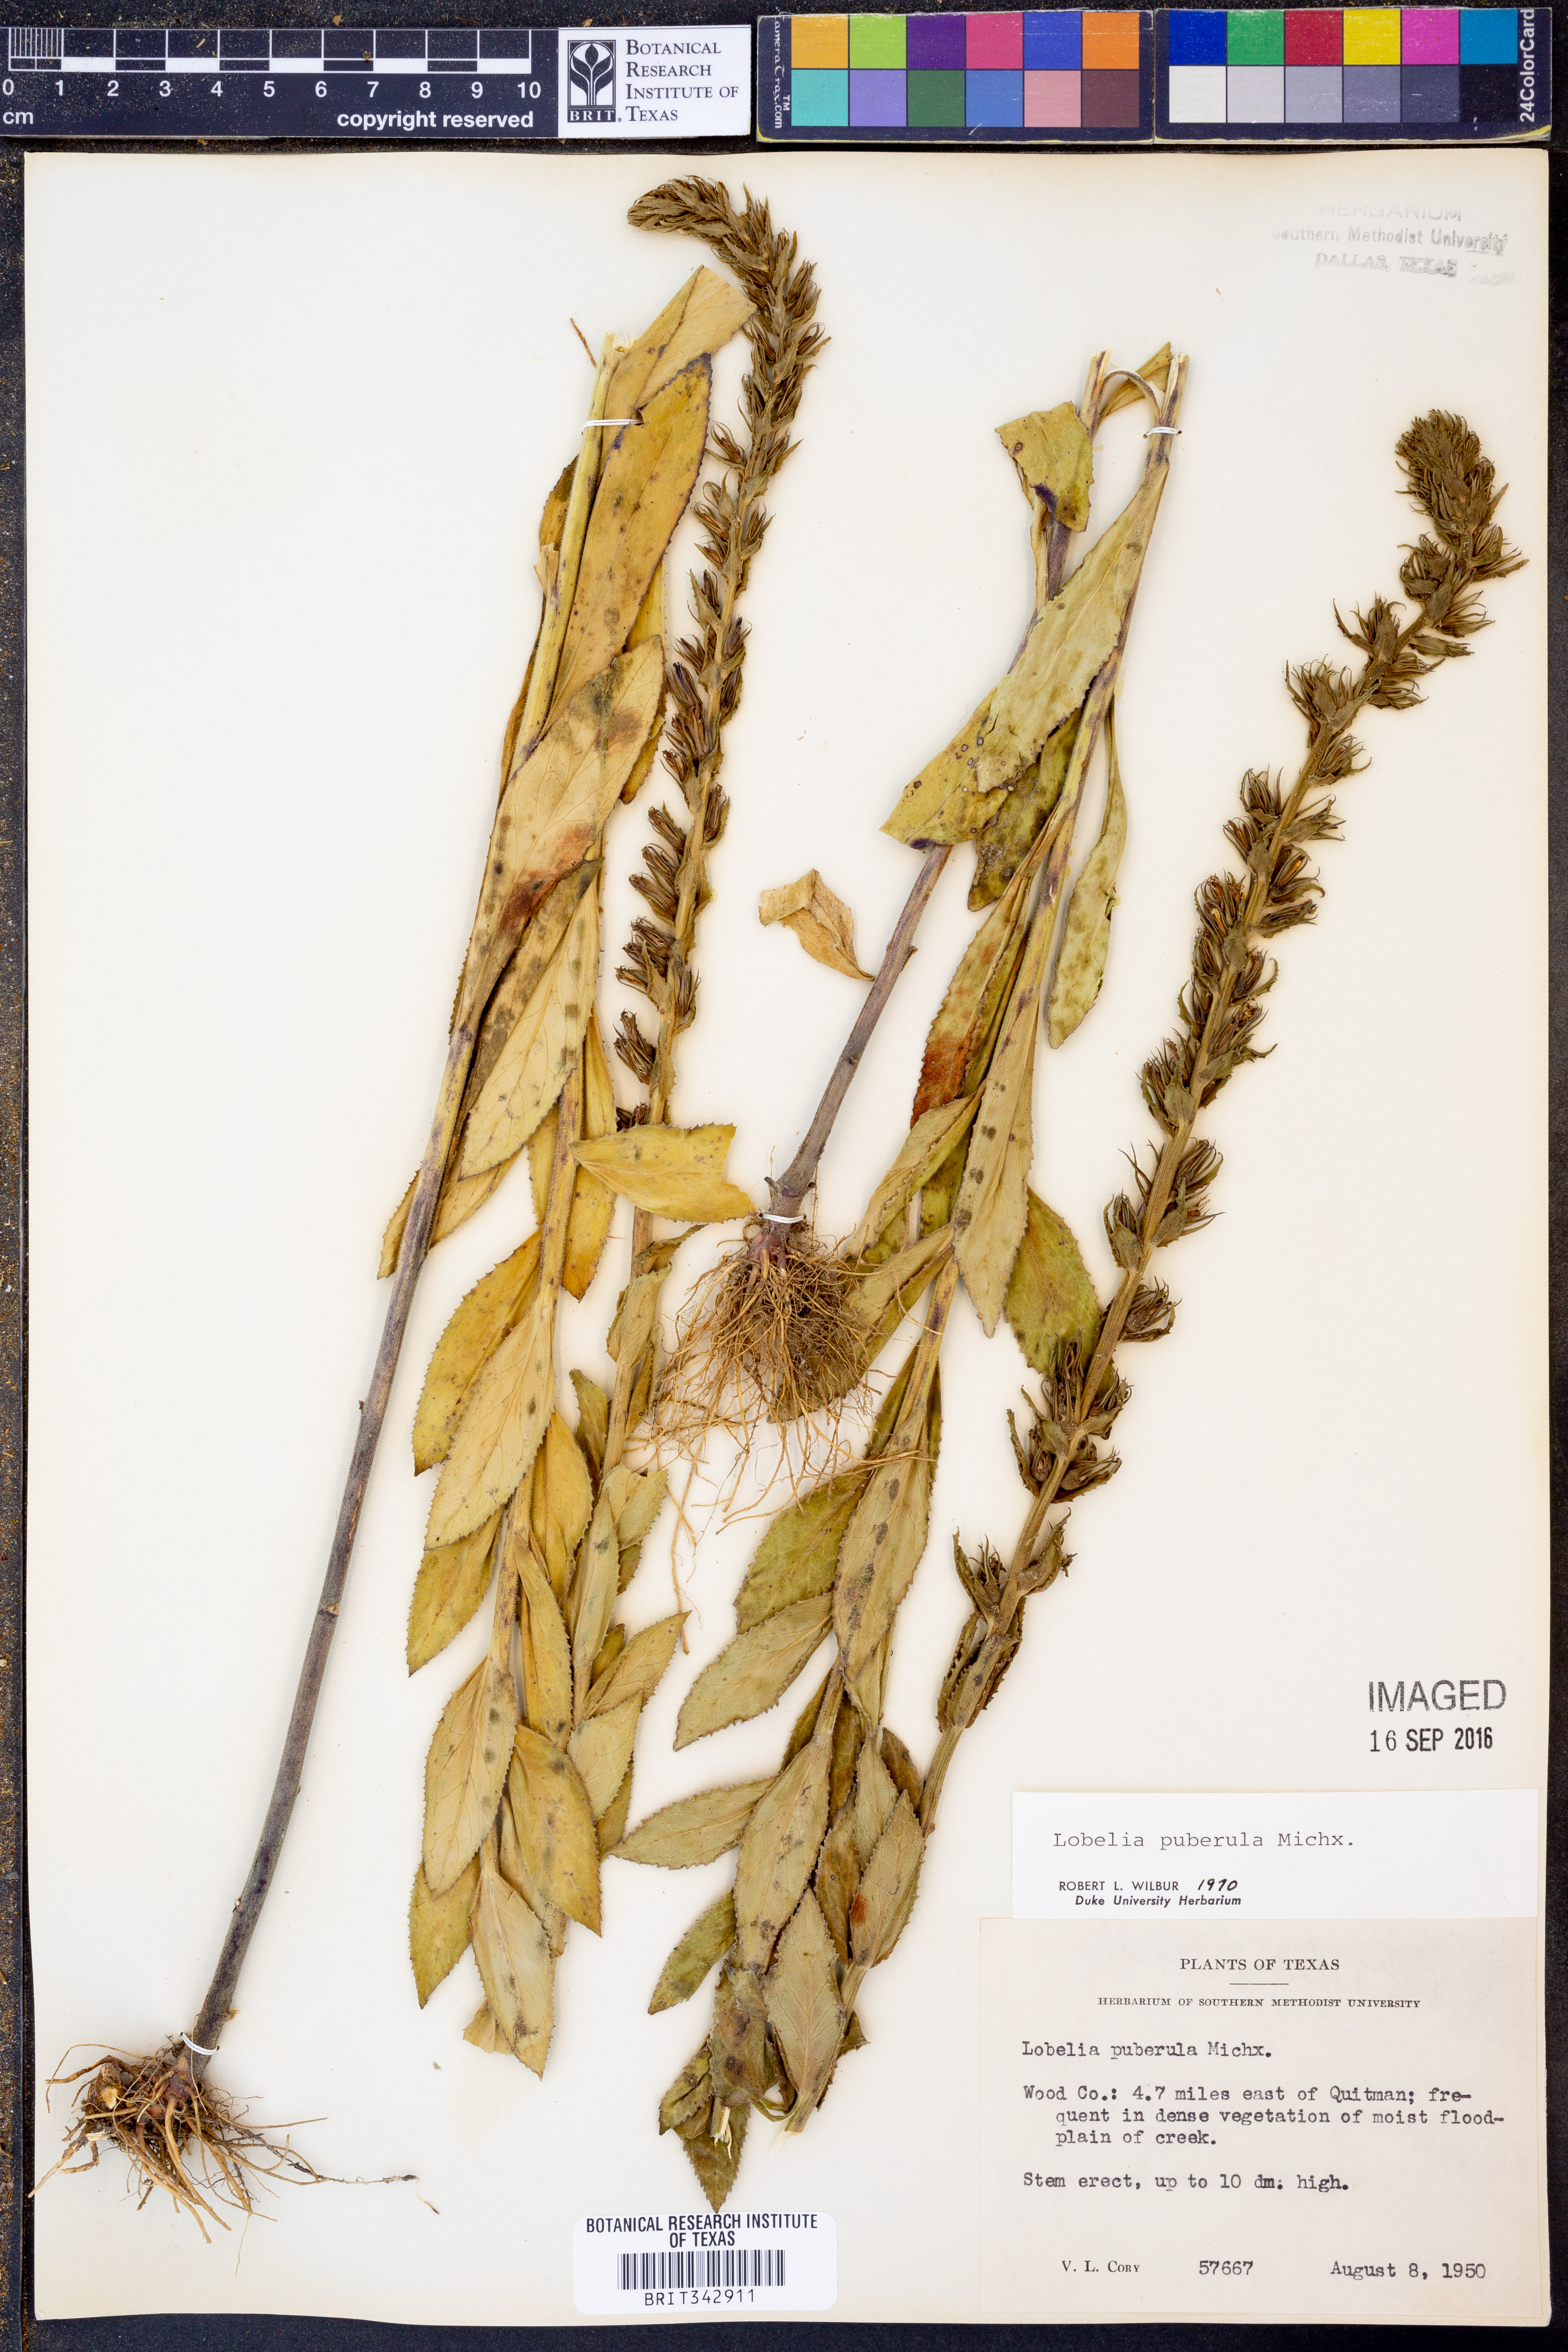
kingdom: Plantae
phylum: Tracheophyta
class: Magnoliopsida
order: Asterales
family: Campanulaceae
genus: Lobelia
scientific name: Lobelia puberula
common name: Purple dewdrop
